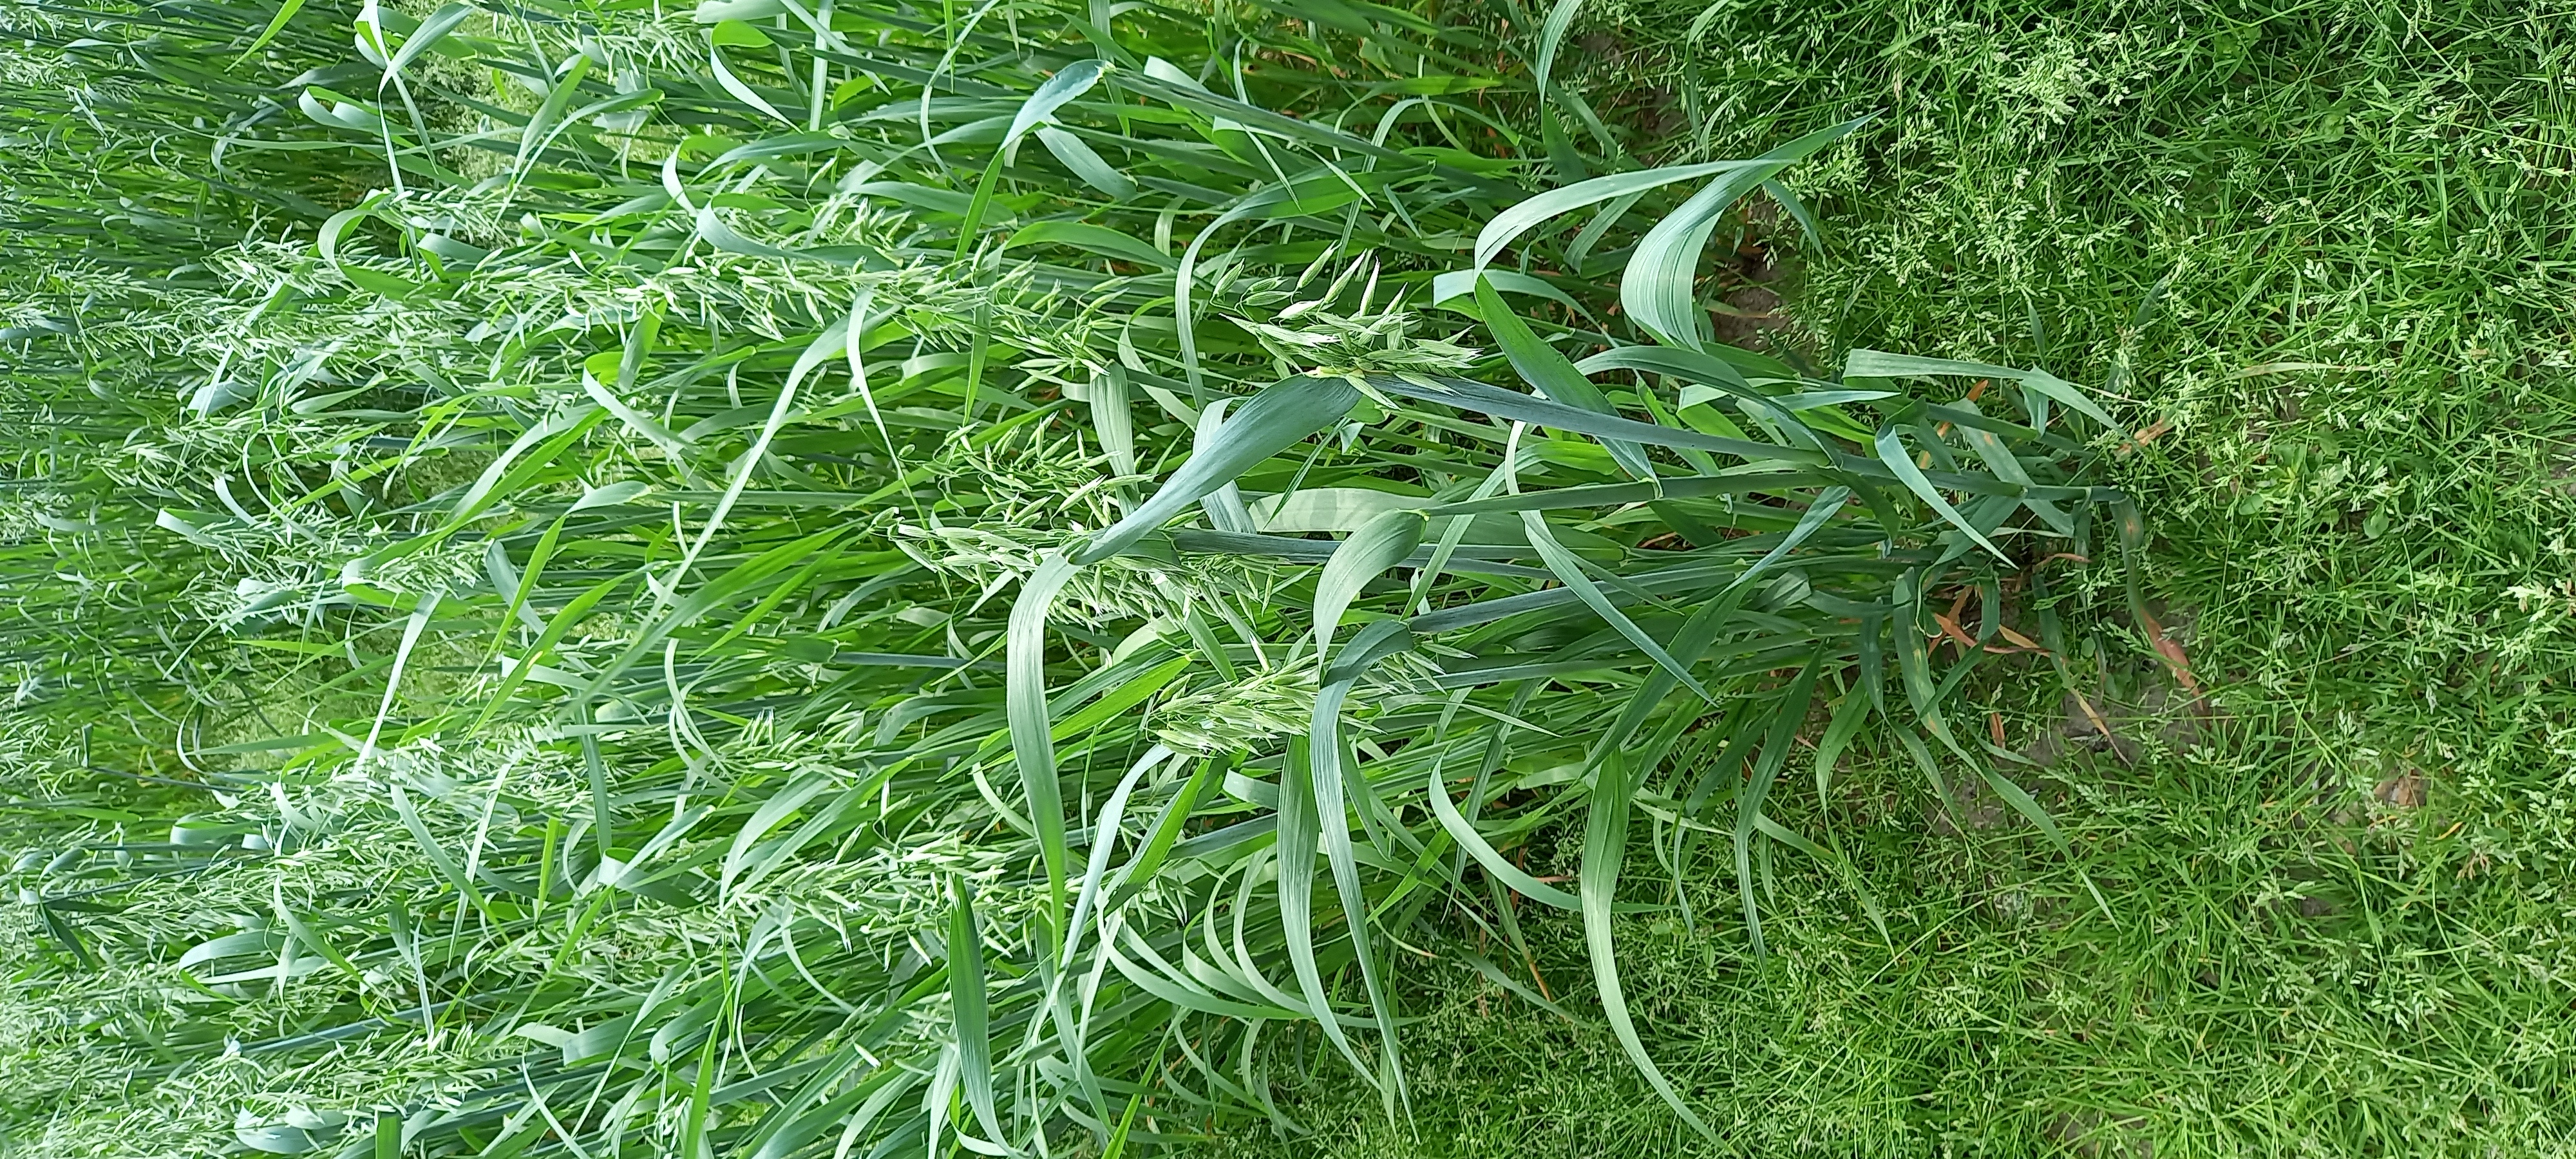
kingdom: Plantae
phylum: Tracheophyta
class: Liliopsida
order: Poales
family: Poaceae
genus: Avena
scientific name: Avena sativa
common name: Oat
